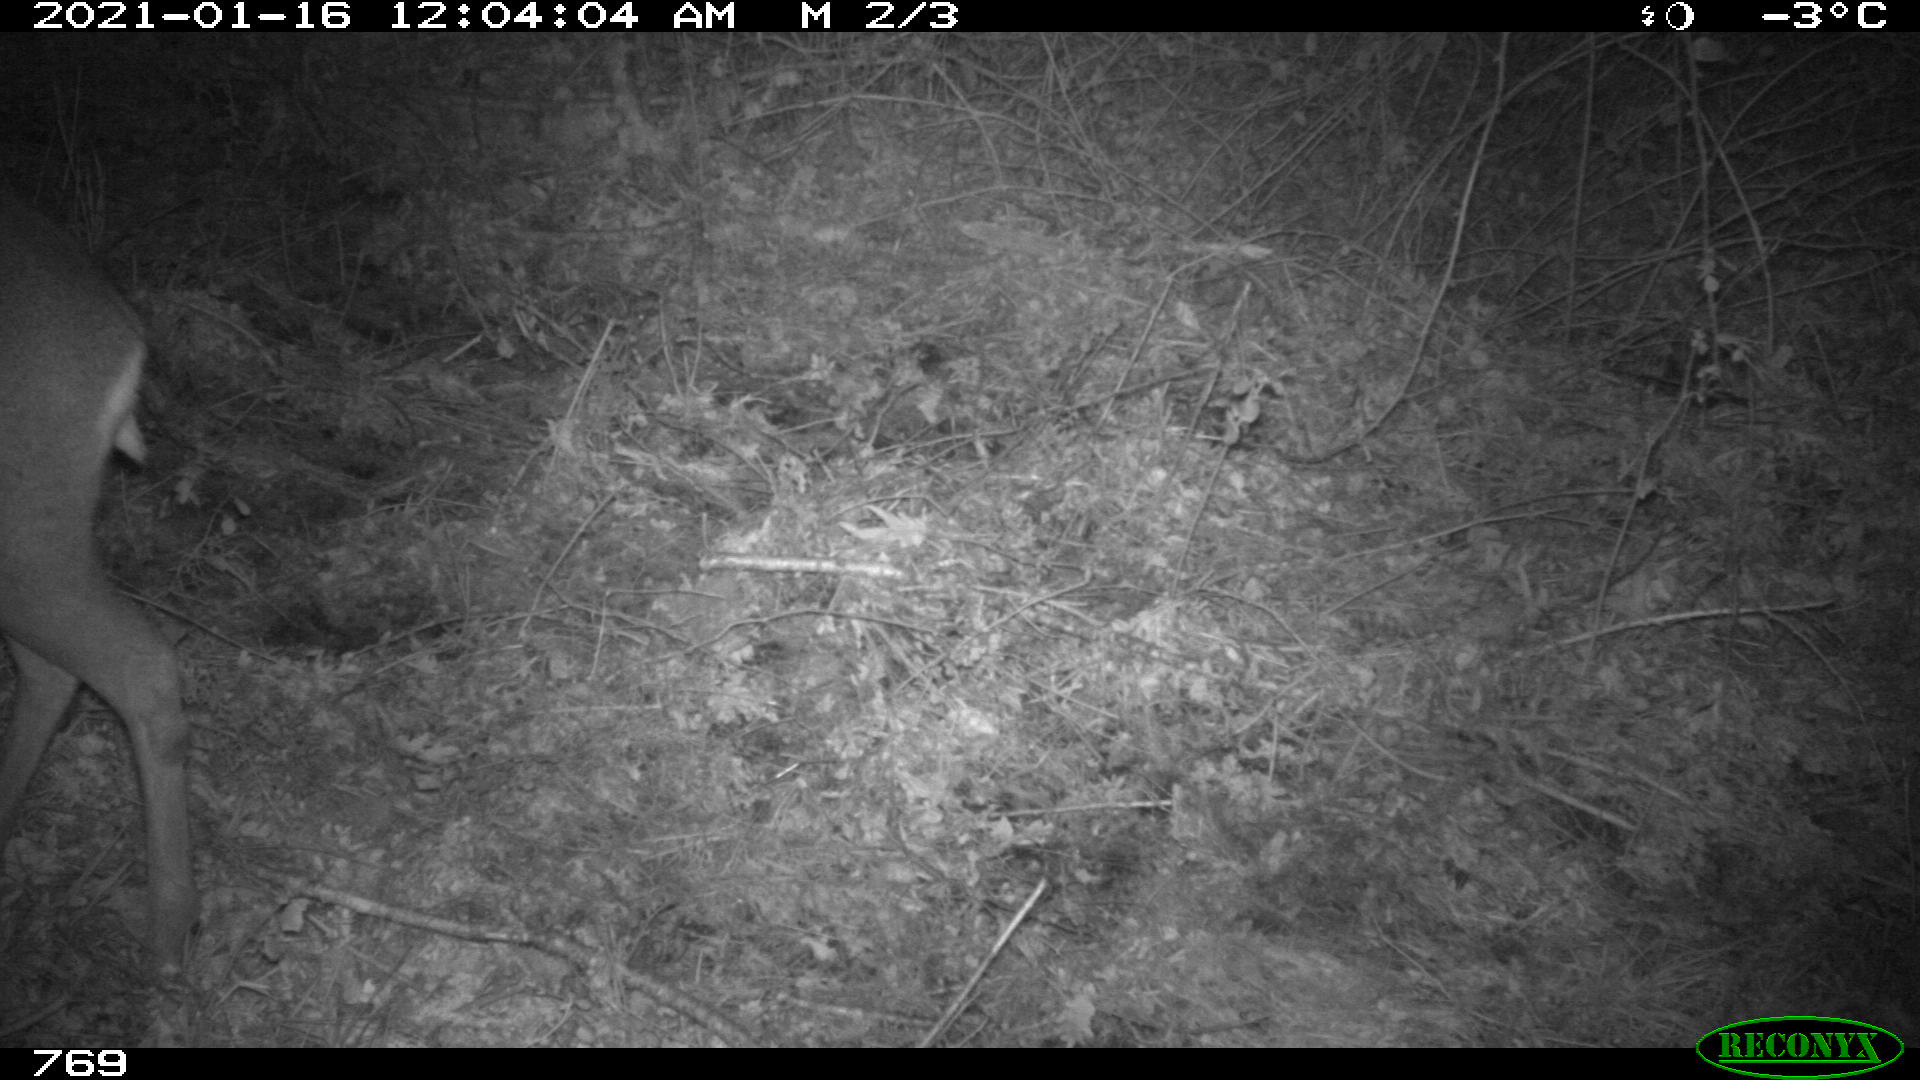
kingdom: Animalia
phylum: Chordata
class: Mammalia
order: Artiodactyla
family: Cervidae
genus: Capreolus
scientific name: Capreolus capreolus
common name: Western roe deer
